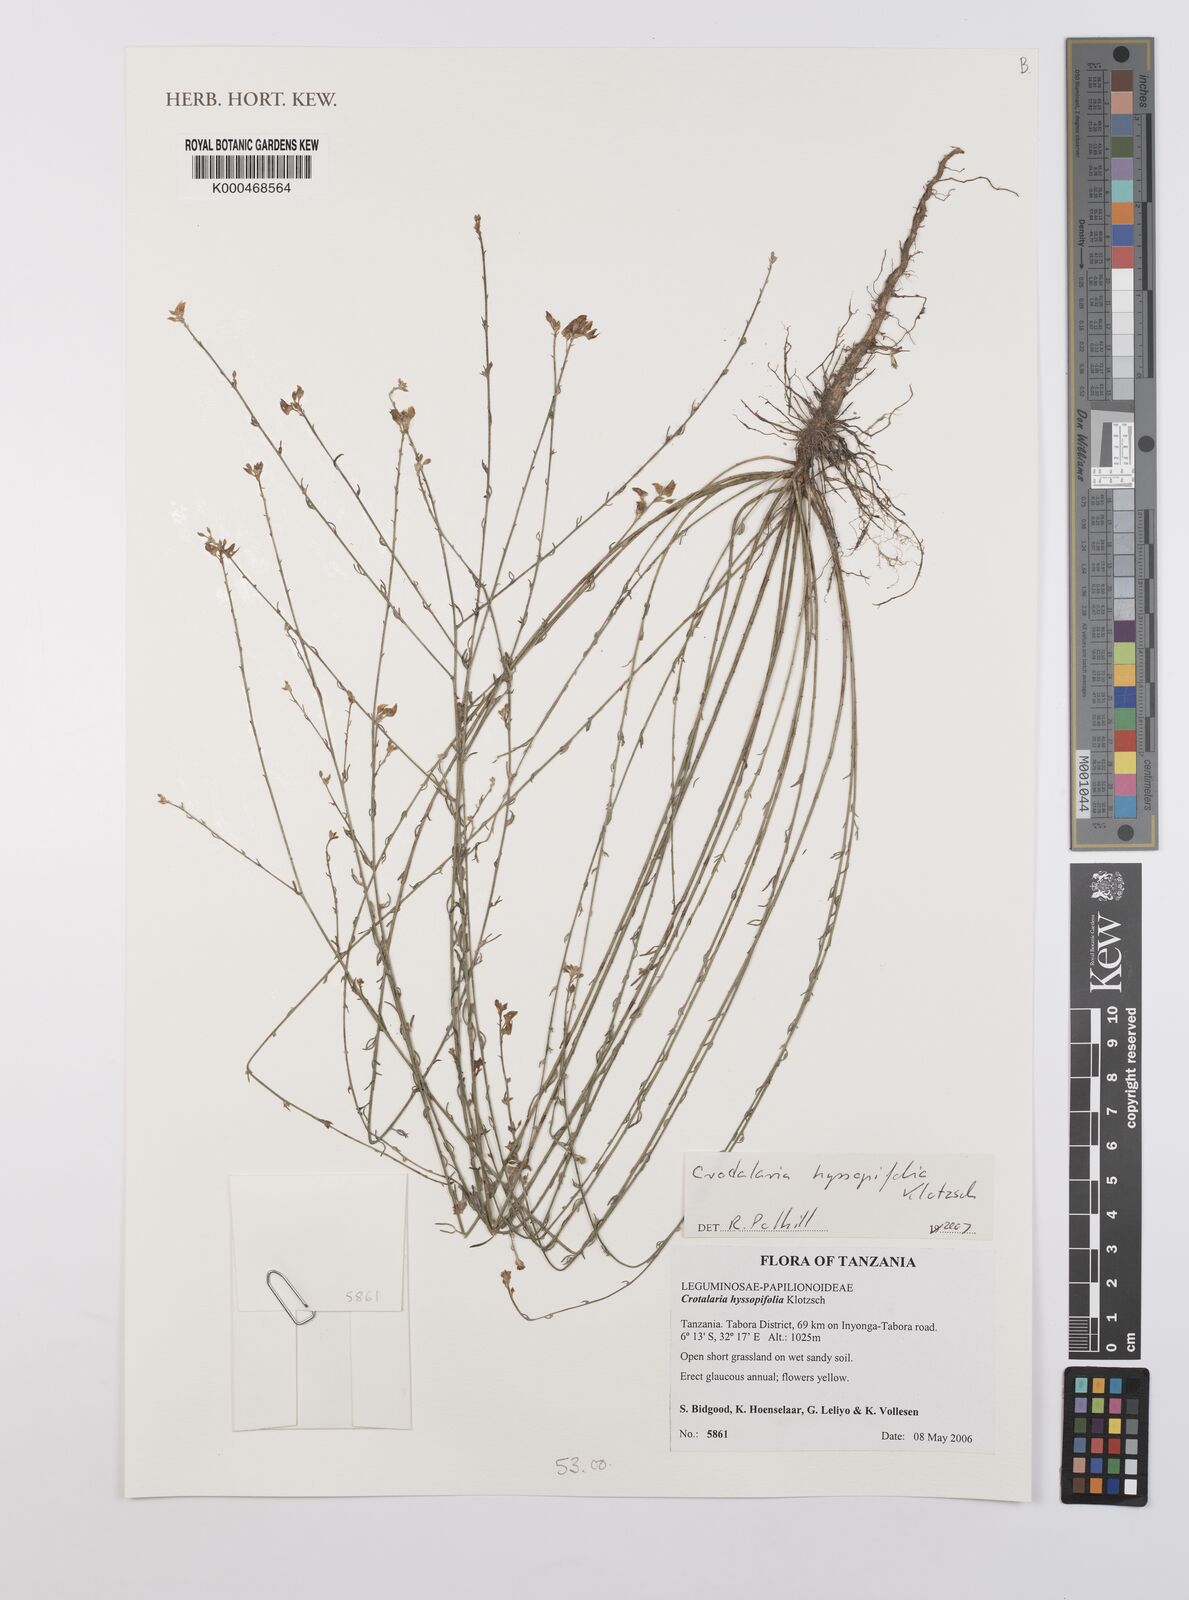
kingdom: Plantae
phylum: Tracheophyta
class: Magnoliopsida
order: Fabales
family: Fabaceae
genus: Crotalaria
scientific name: Crotalaria hyssopifolia
